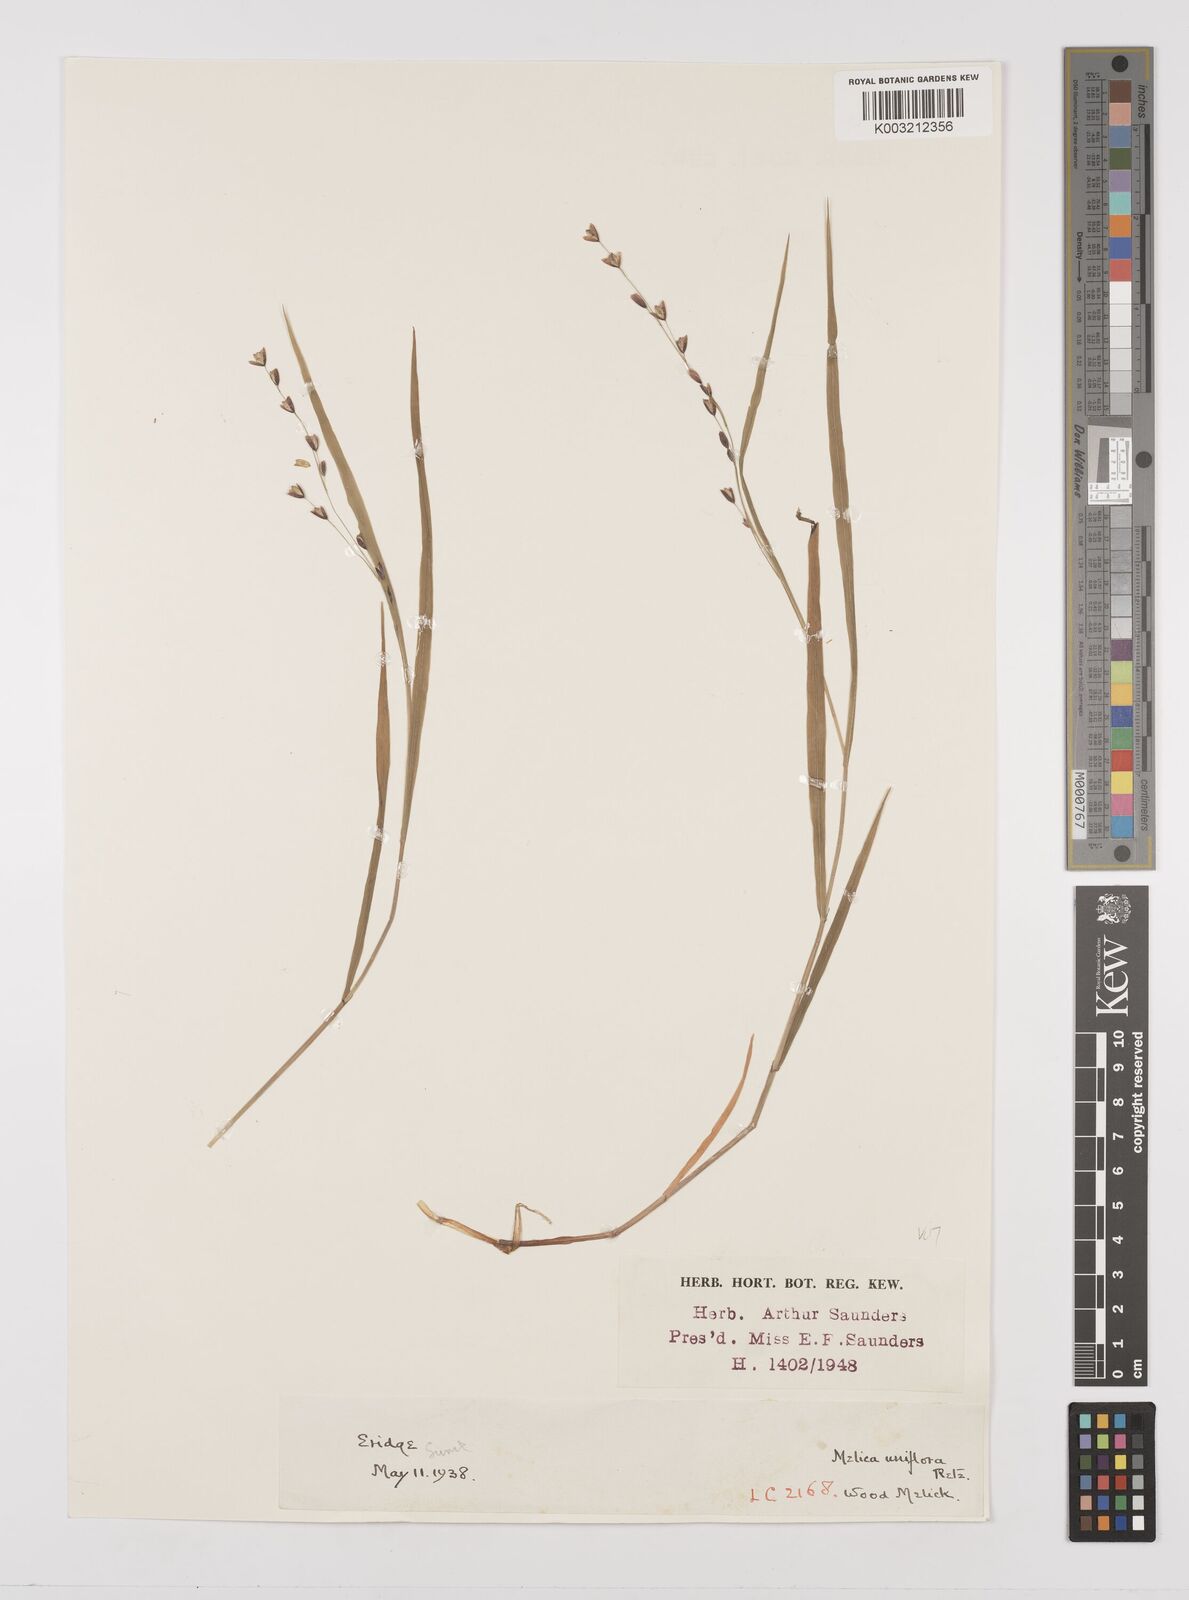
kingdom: Plantae
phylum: Tracheophyta
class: Liliopsida
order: Poales
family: Poaceae
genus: Melica
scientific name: Melica uniflora
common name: Wood melick
